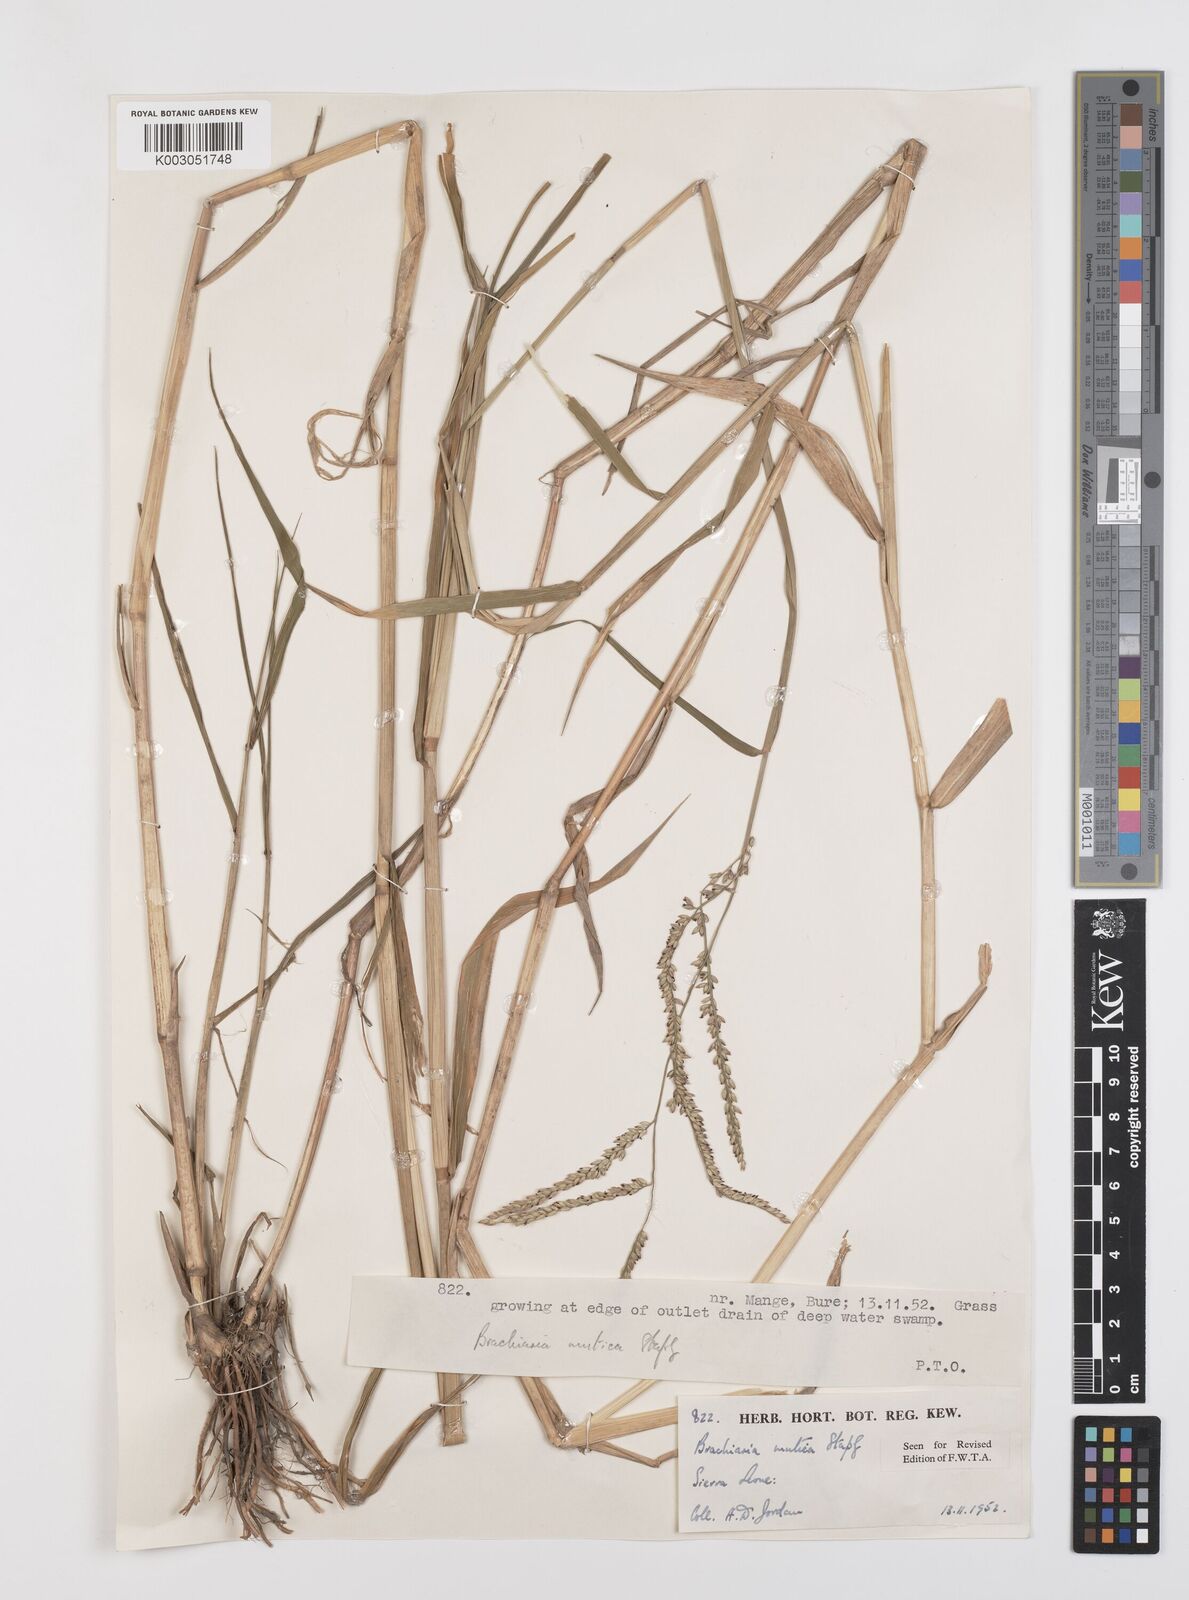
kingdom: Plantae
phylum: Tracheophyta
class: Liliopsida
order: Poales
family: Poaceae
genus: Urochloa
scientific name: Urochloa mutica
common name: Para grass
